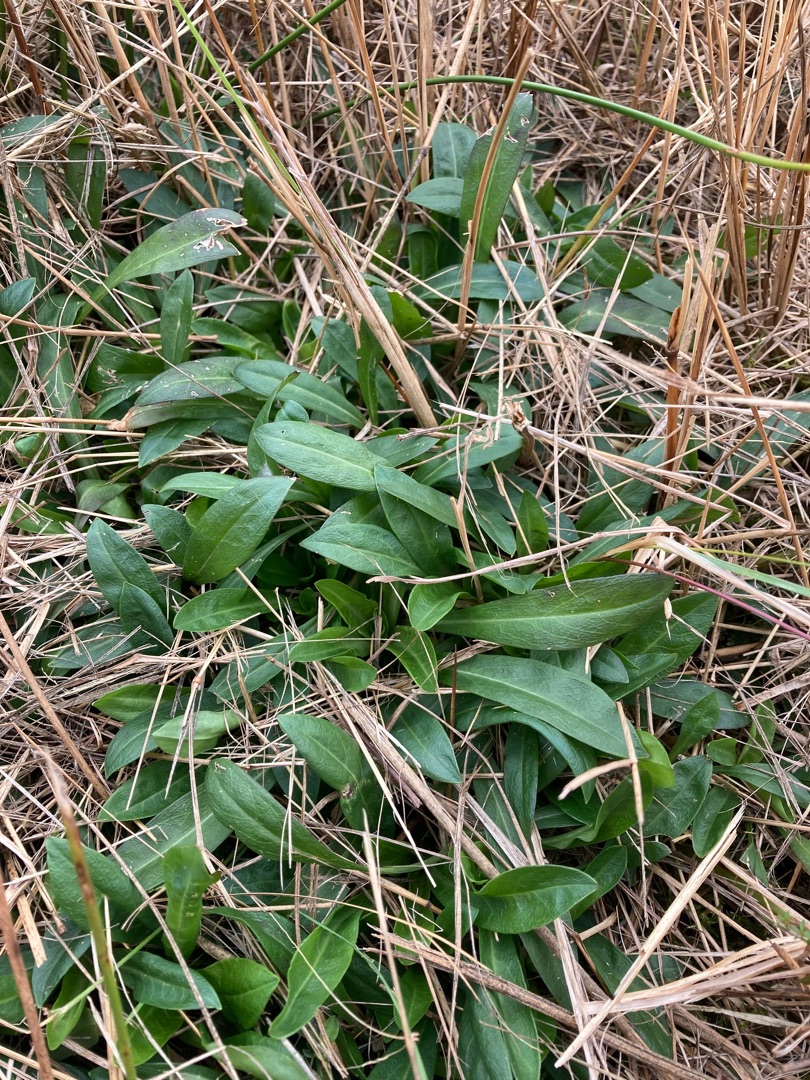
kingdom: Plantae
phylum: Tracheophyta
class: Magnoliopsida
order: Caryophyllales
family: Caryophyllaceae
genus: Silene
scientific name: Silene flos-cuculi
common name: Trævlekrone
